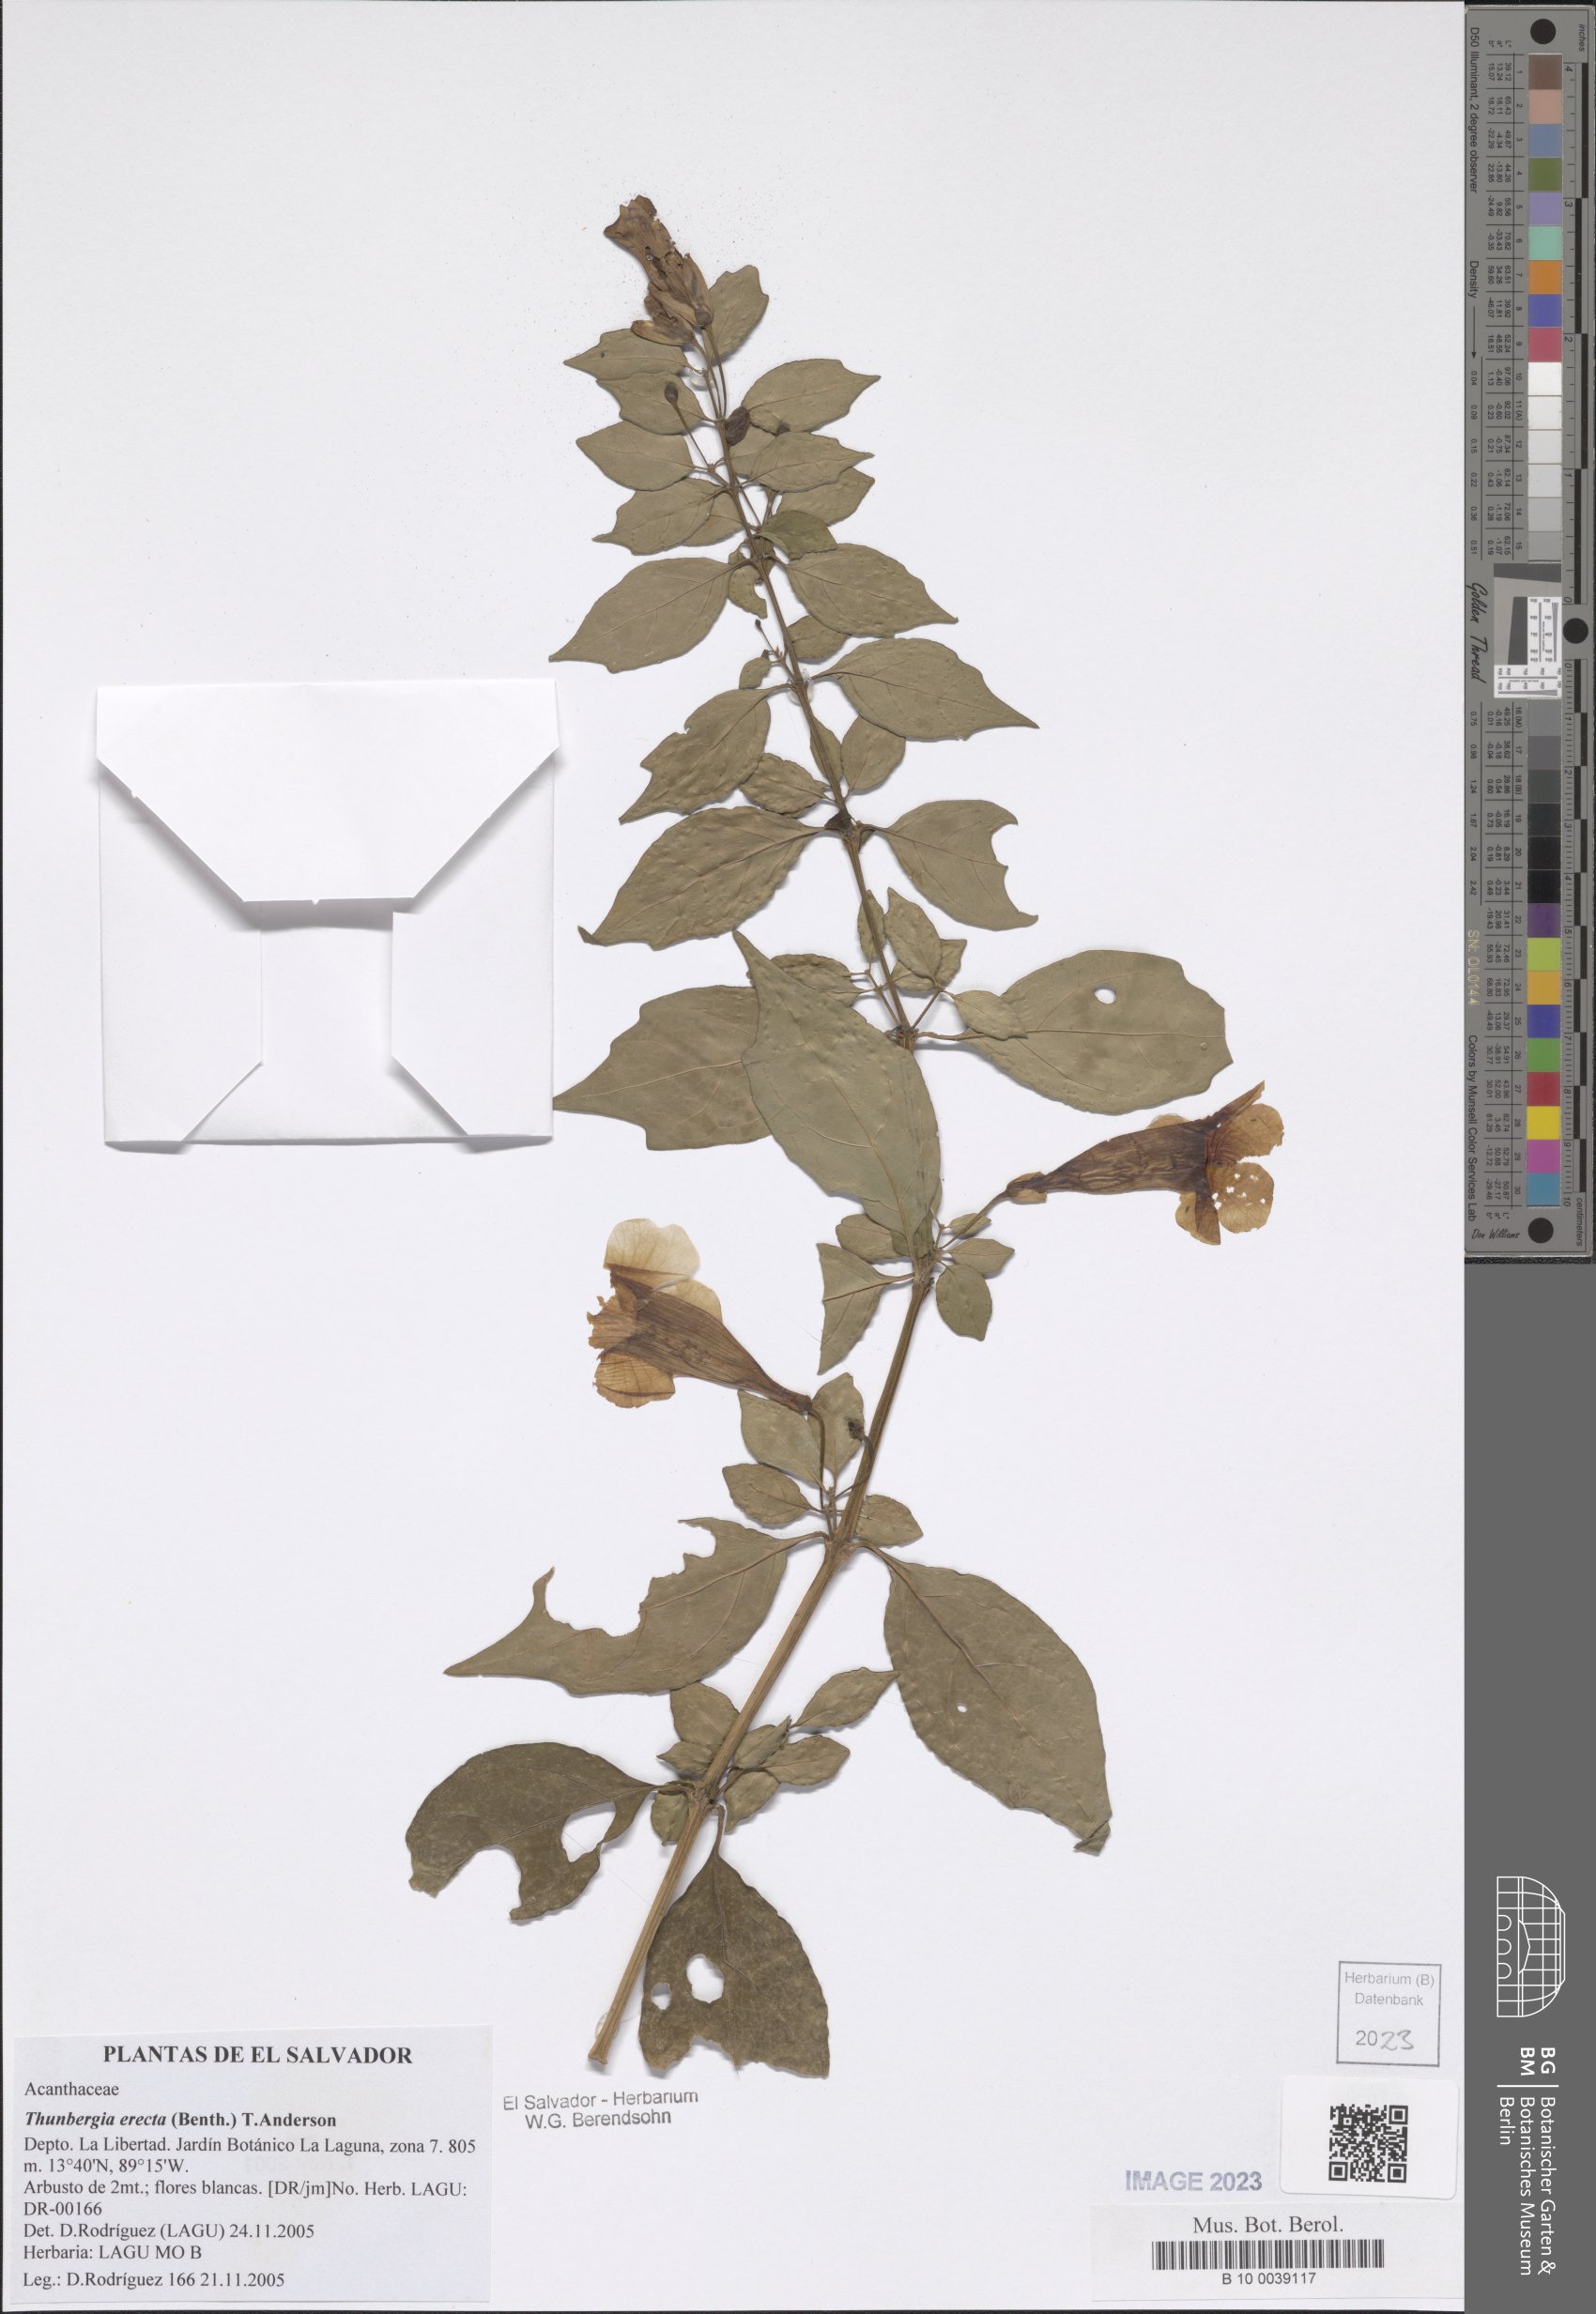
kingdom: Plantae
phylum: Tracheophyta
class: Magnoliopsida
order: Lamiales
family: Acanthaceae
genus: Thunbergia
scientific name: Thunbergia erecta
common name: Bush clockvine
